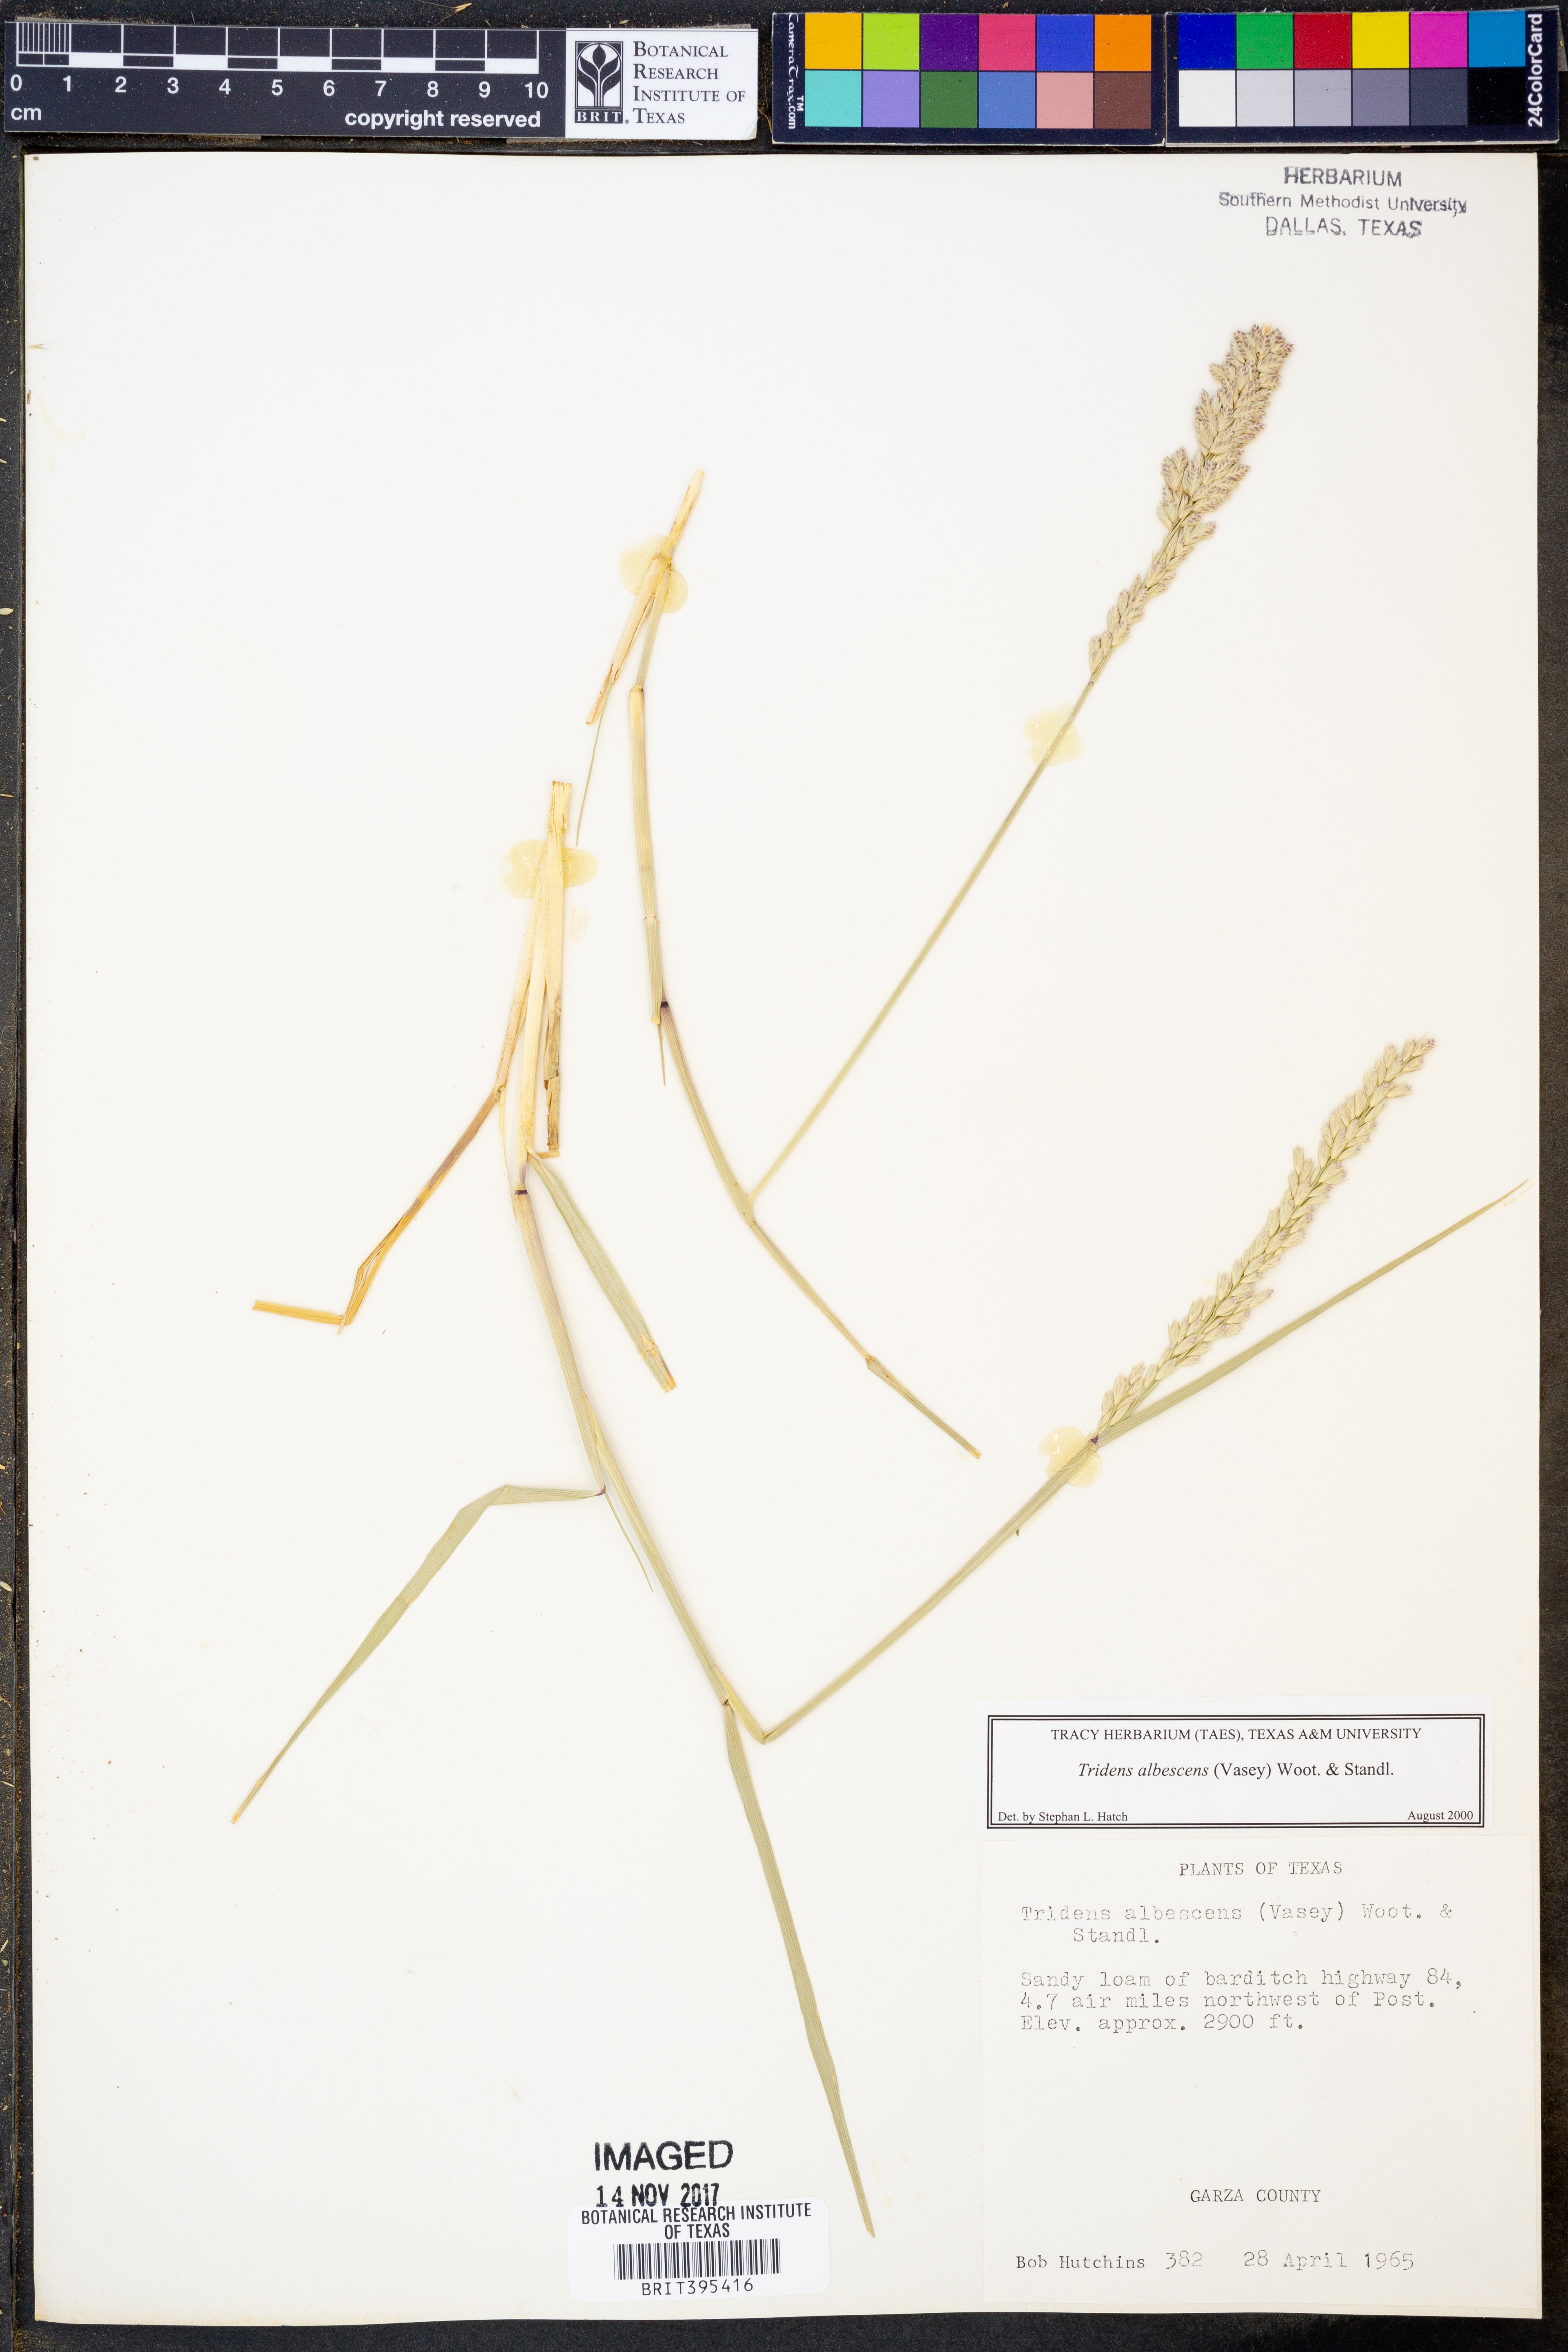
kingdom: Plantae
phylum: Tracheophyta
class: Liliopsida
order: Poales
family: Poaceae
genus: Tridens
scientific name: Tridens albescens
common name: White tridens
